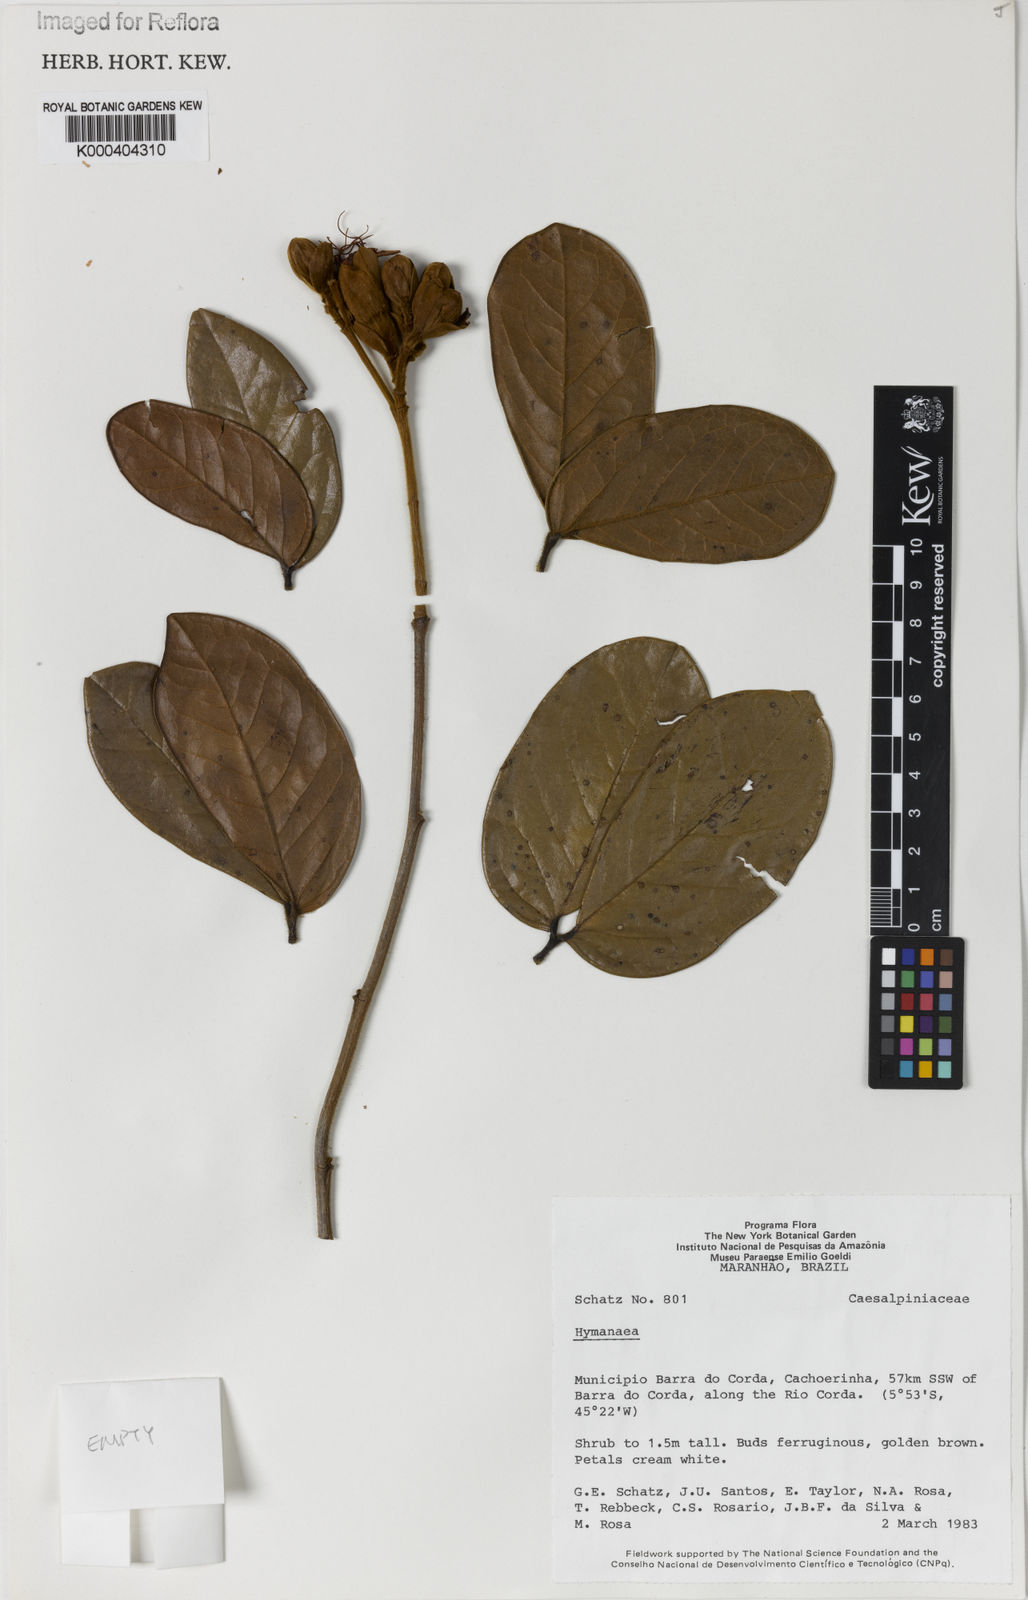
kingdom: Plantae
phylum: Tracheophyta
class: Magnoliopsida
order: Fabales
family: Fabaceae
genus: Hymenaea
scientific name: Hymenaea
